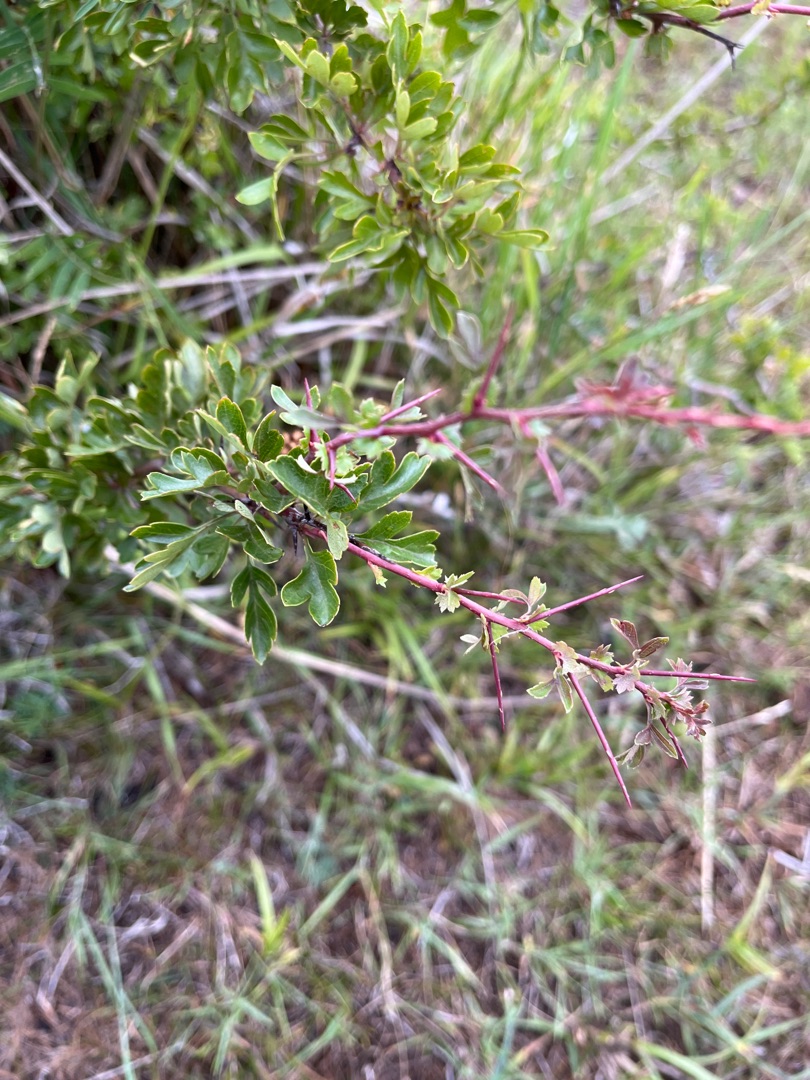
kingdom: Plantae
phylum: Tracheophyta
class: Magnoliopsida
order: Rosales
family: Rosaceae
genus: Crataegus
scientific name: Crataegus monogyna
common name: Engriflet hvidtjørn
